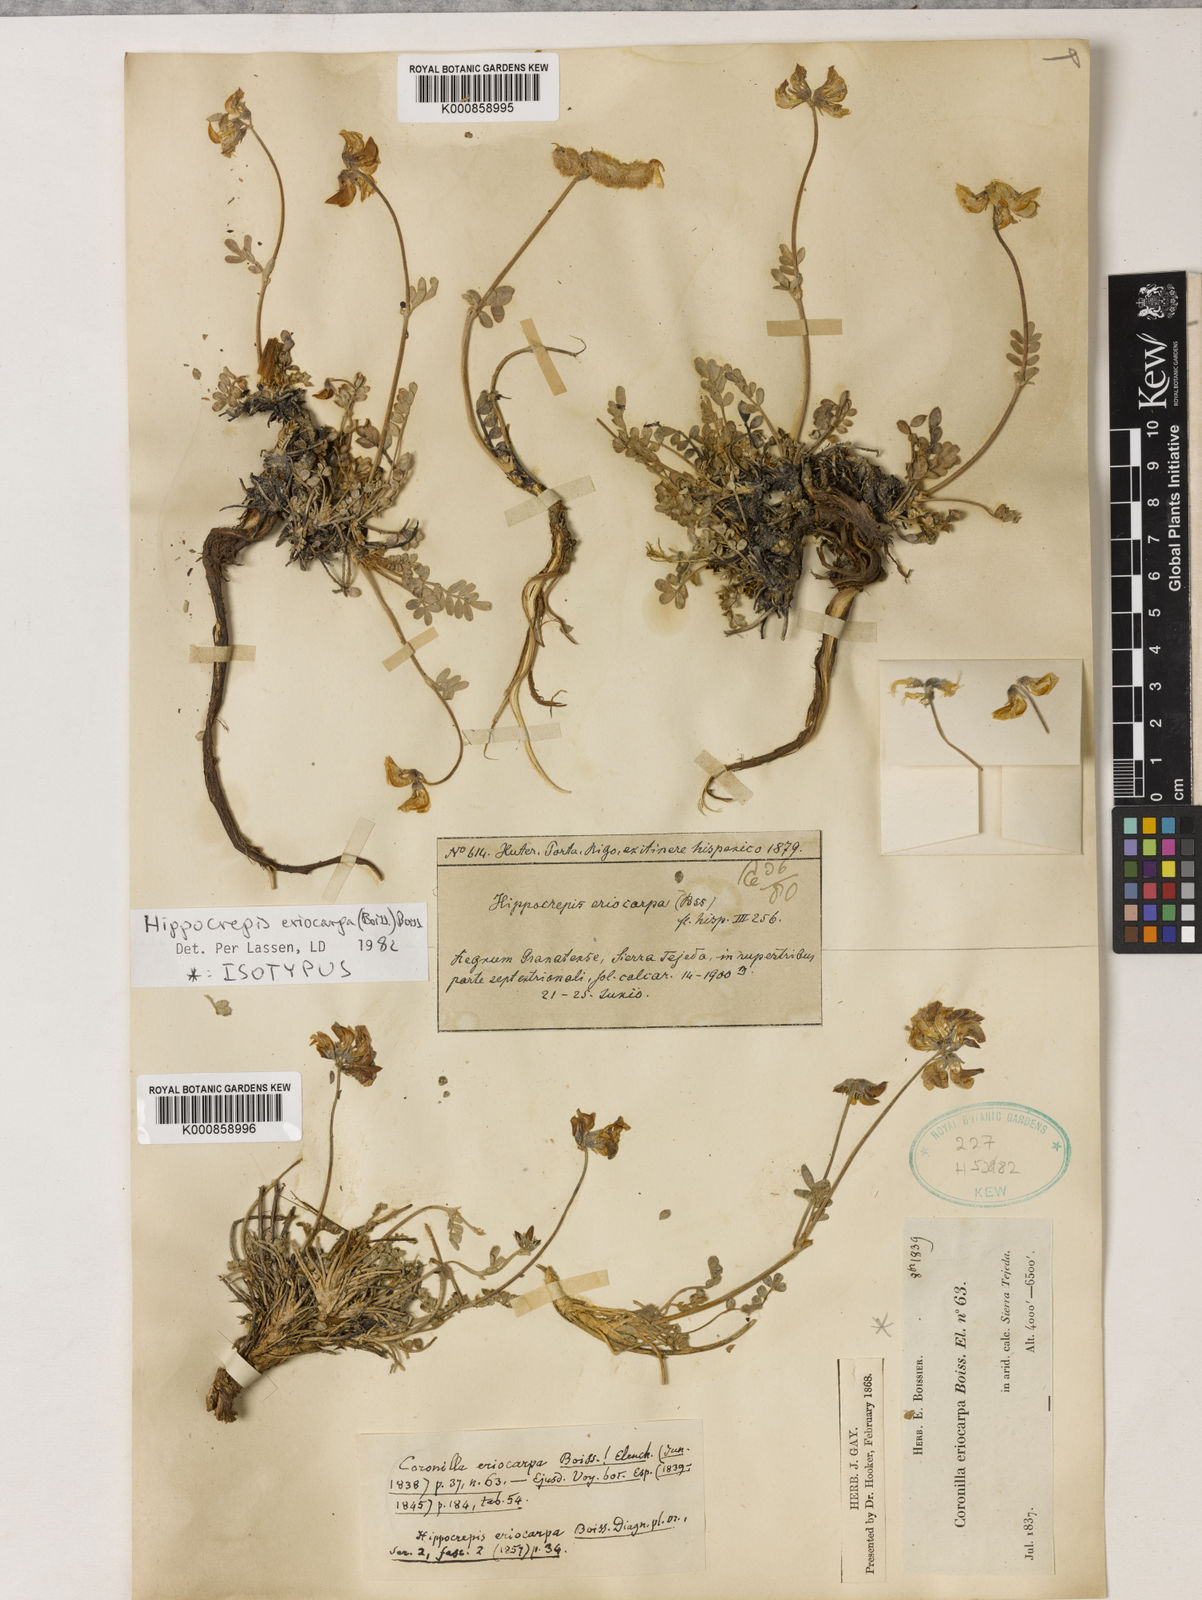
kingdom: Plantae
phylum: Tracheophyta
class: Magnoliopsida
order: Fabales
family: Fabaceae
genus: Hippocrepis
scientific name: Hippocrepis eriocarpa
